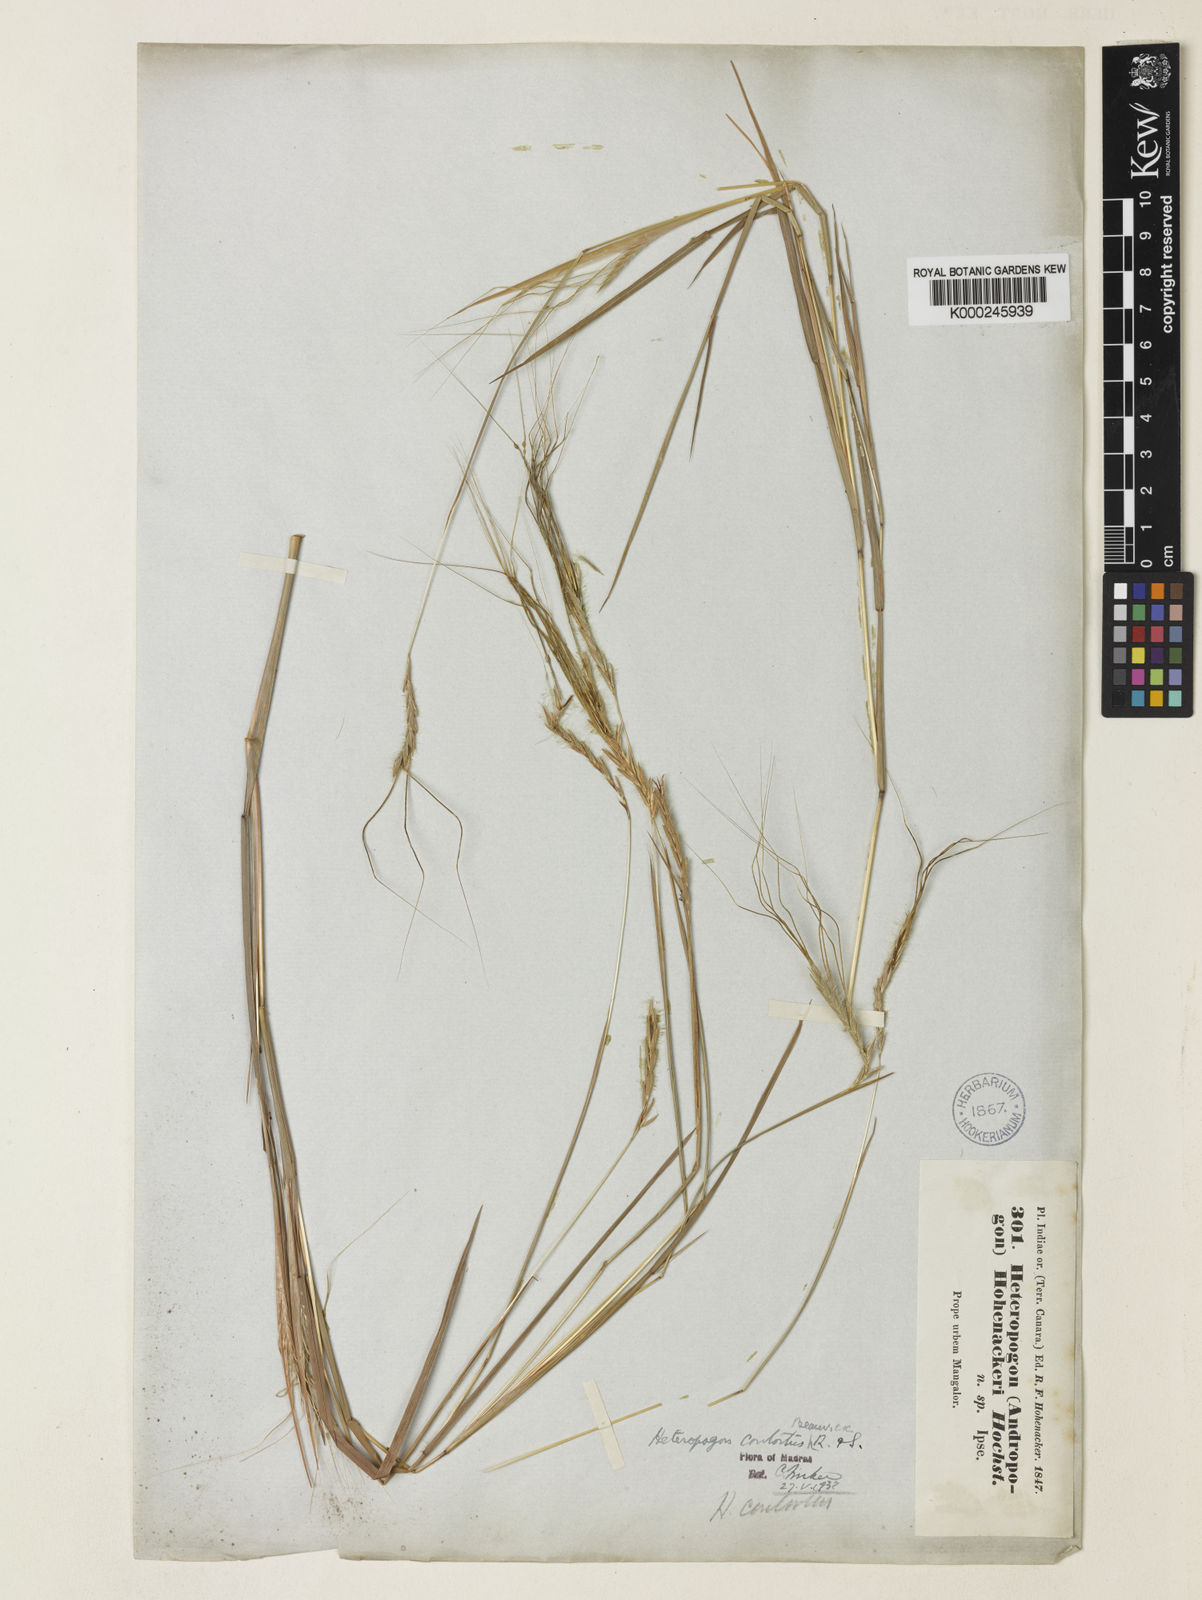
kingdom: Plantae
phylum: Tracheophyta
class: Liliopsida
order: Poales
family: Poaceae
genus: Heteropogon
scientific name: Heteropogon contortus
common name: Tanglehead
